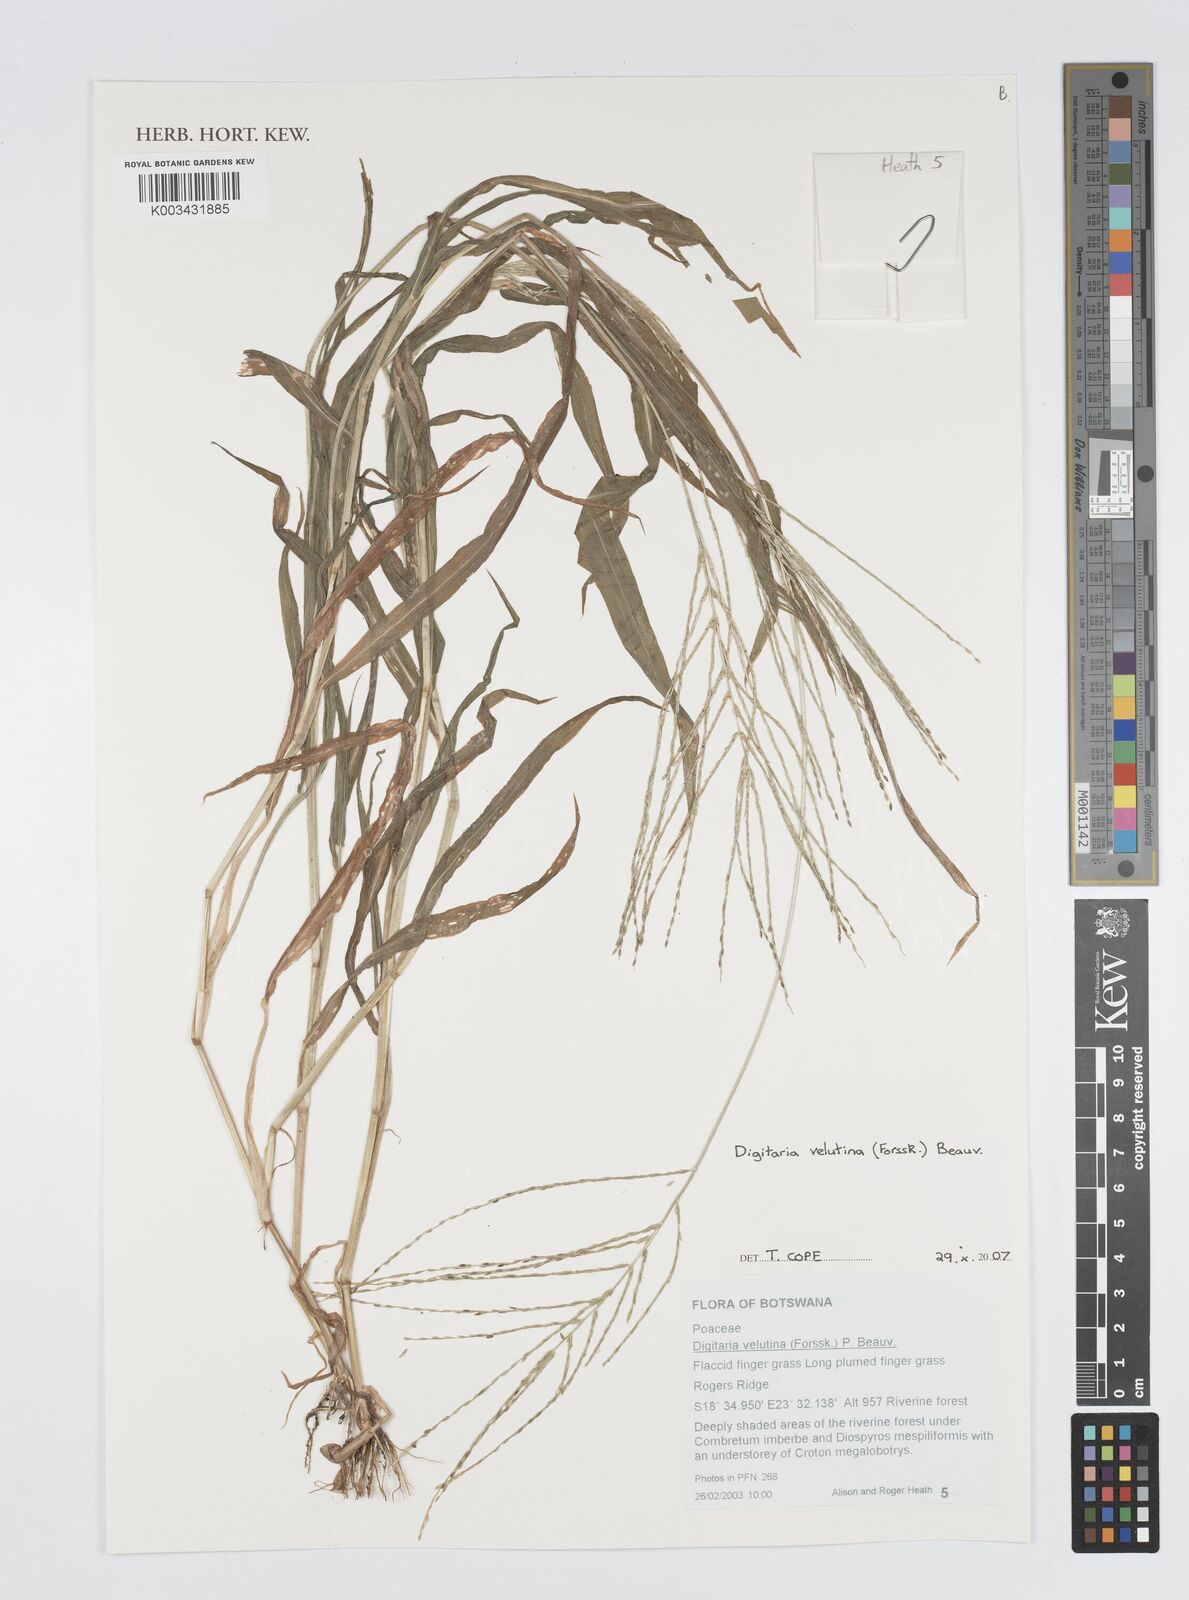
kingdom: Plantae
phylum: Tracheophyta
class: Liliopsida
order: Poales
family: Poaceae
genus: Digitaria
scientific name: Digitaria velutina
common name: Long-plume finger grass
